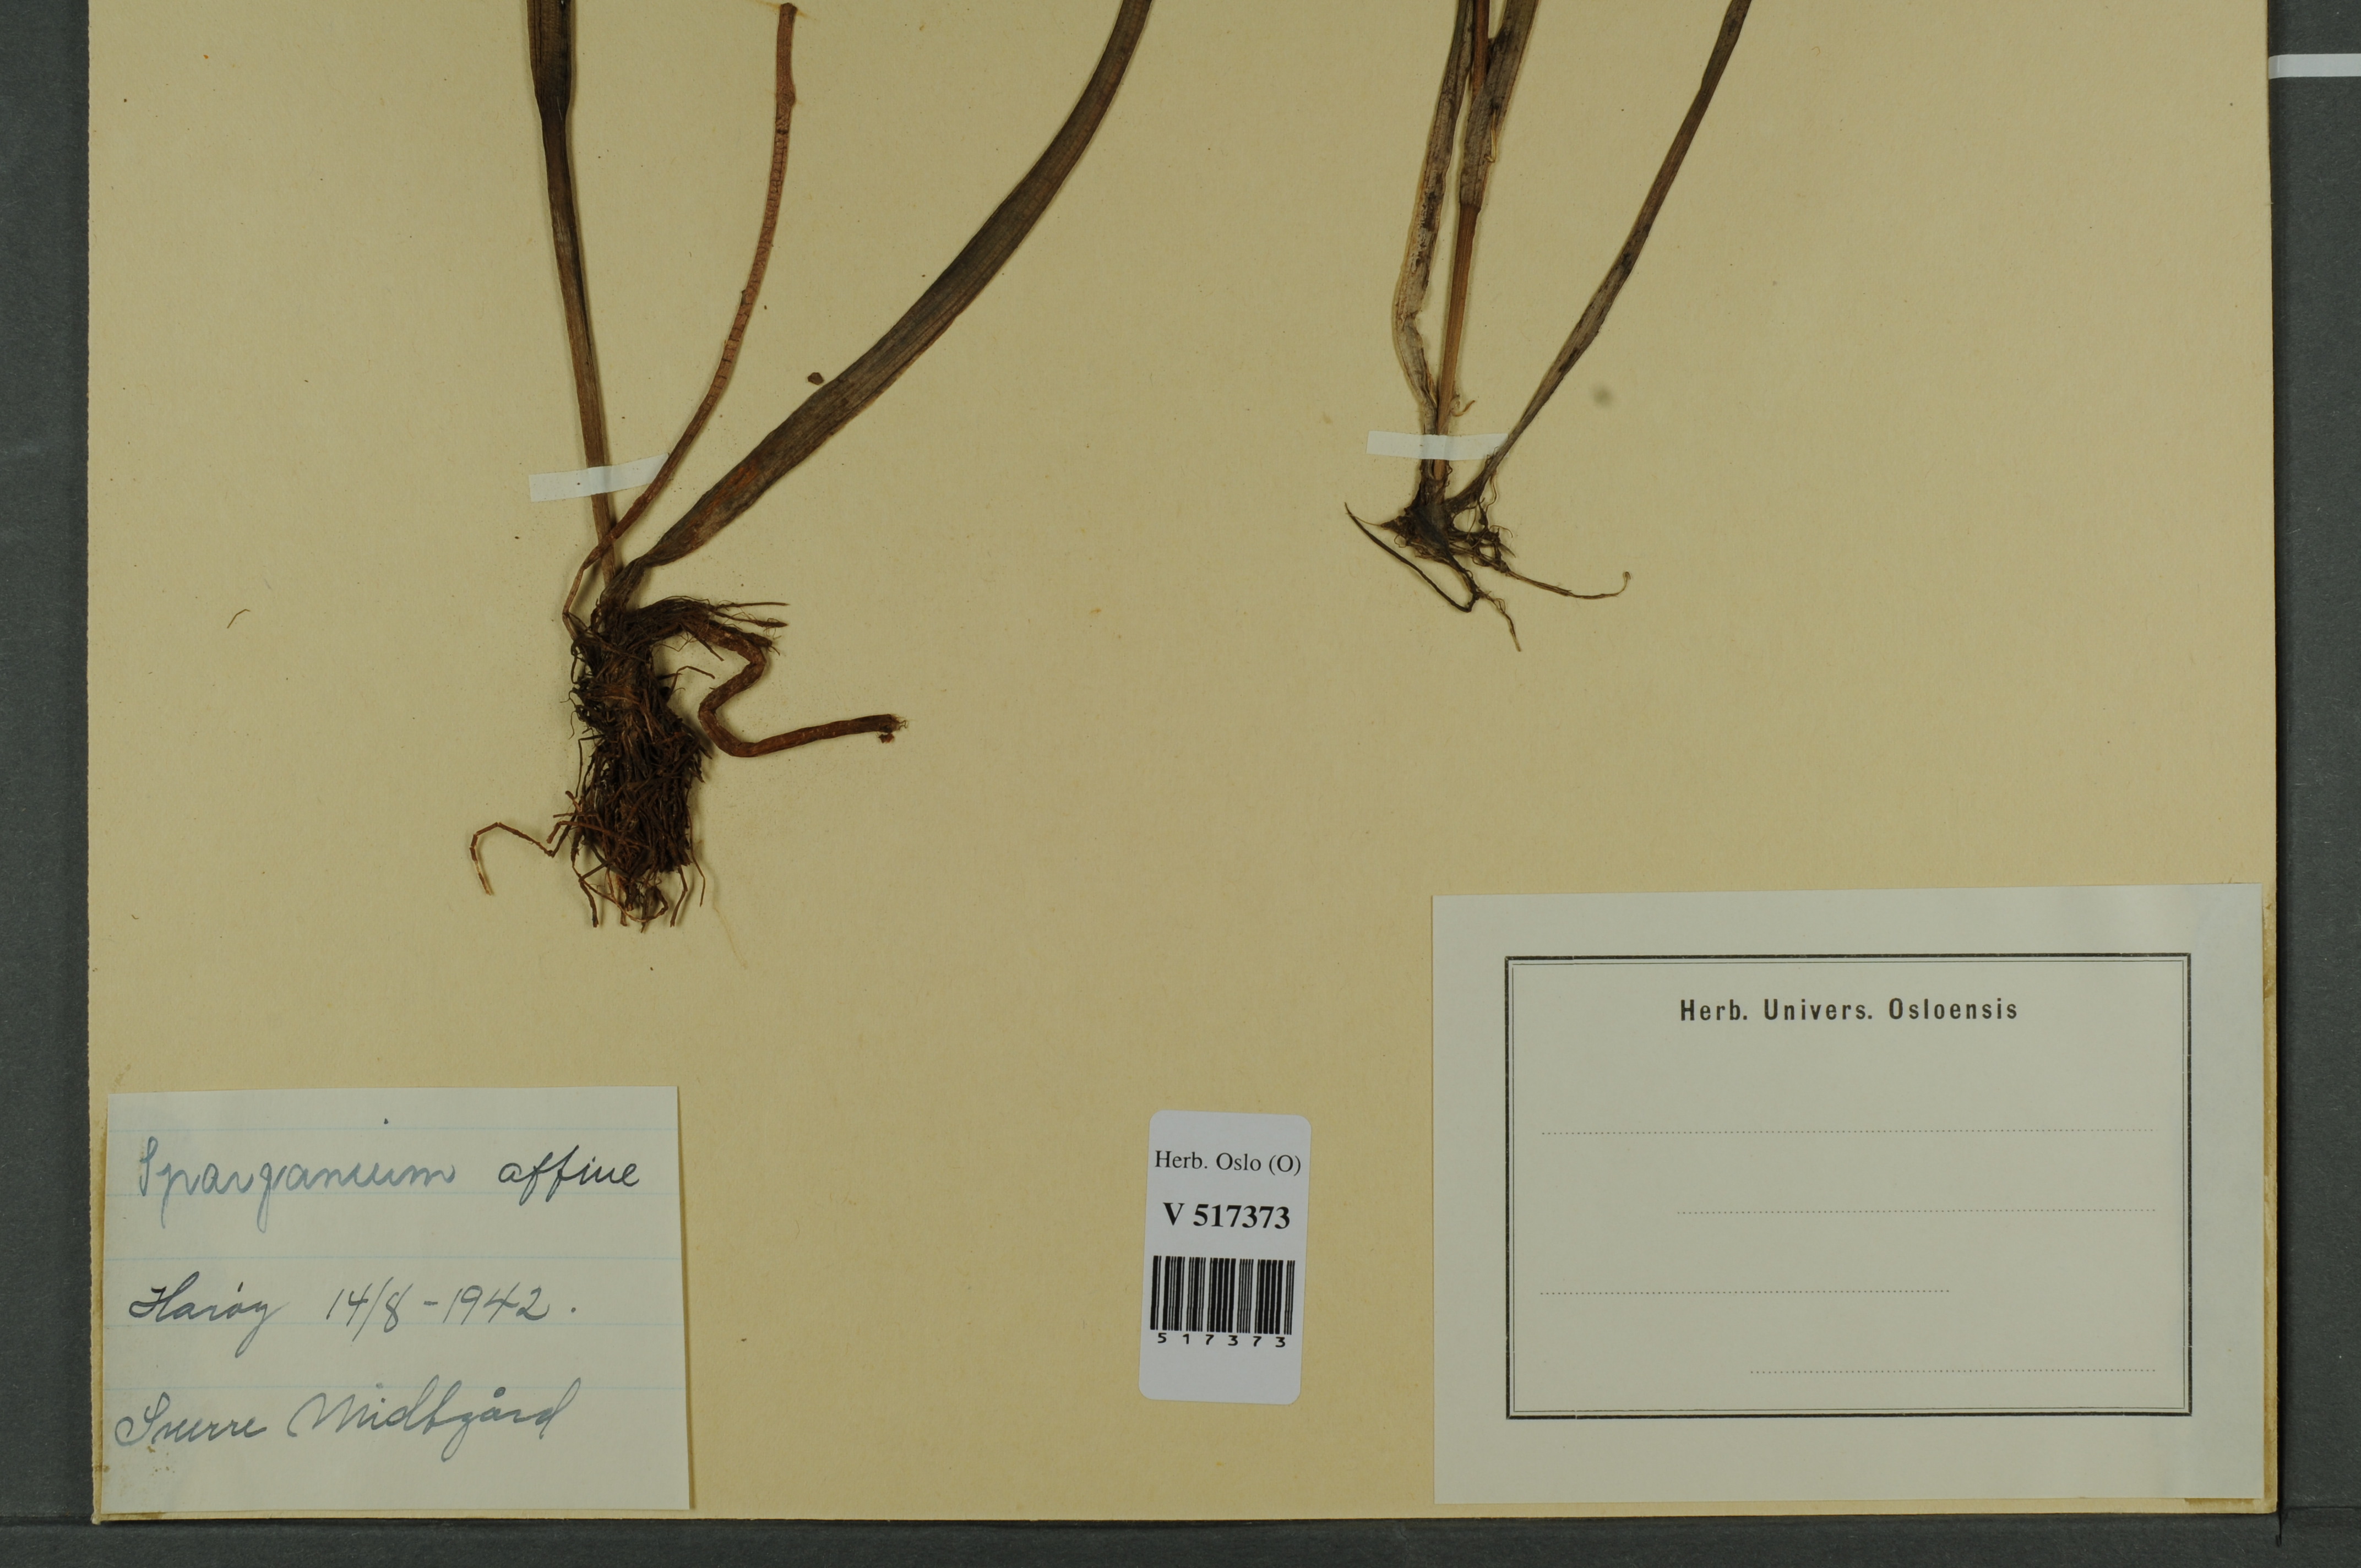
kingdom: Plantae
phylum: Tracheophyta
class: Liliopsida
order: Poales
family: Typhaceae
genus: Sparganium
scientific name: Sparganium angustifolium
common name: Floating bur-reed
